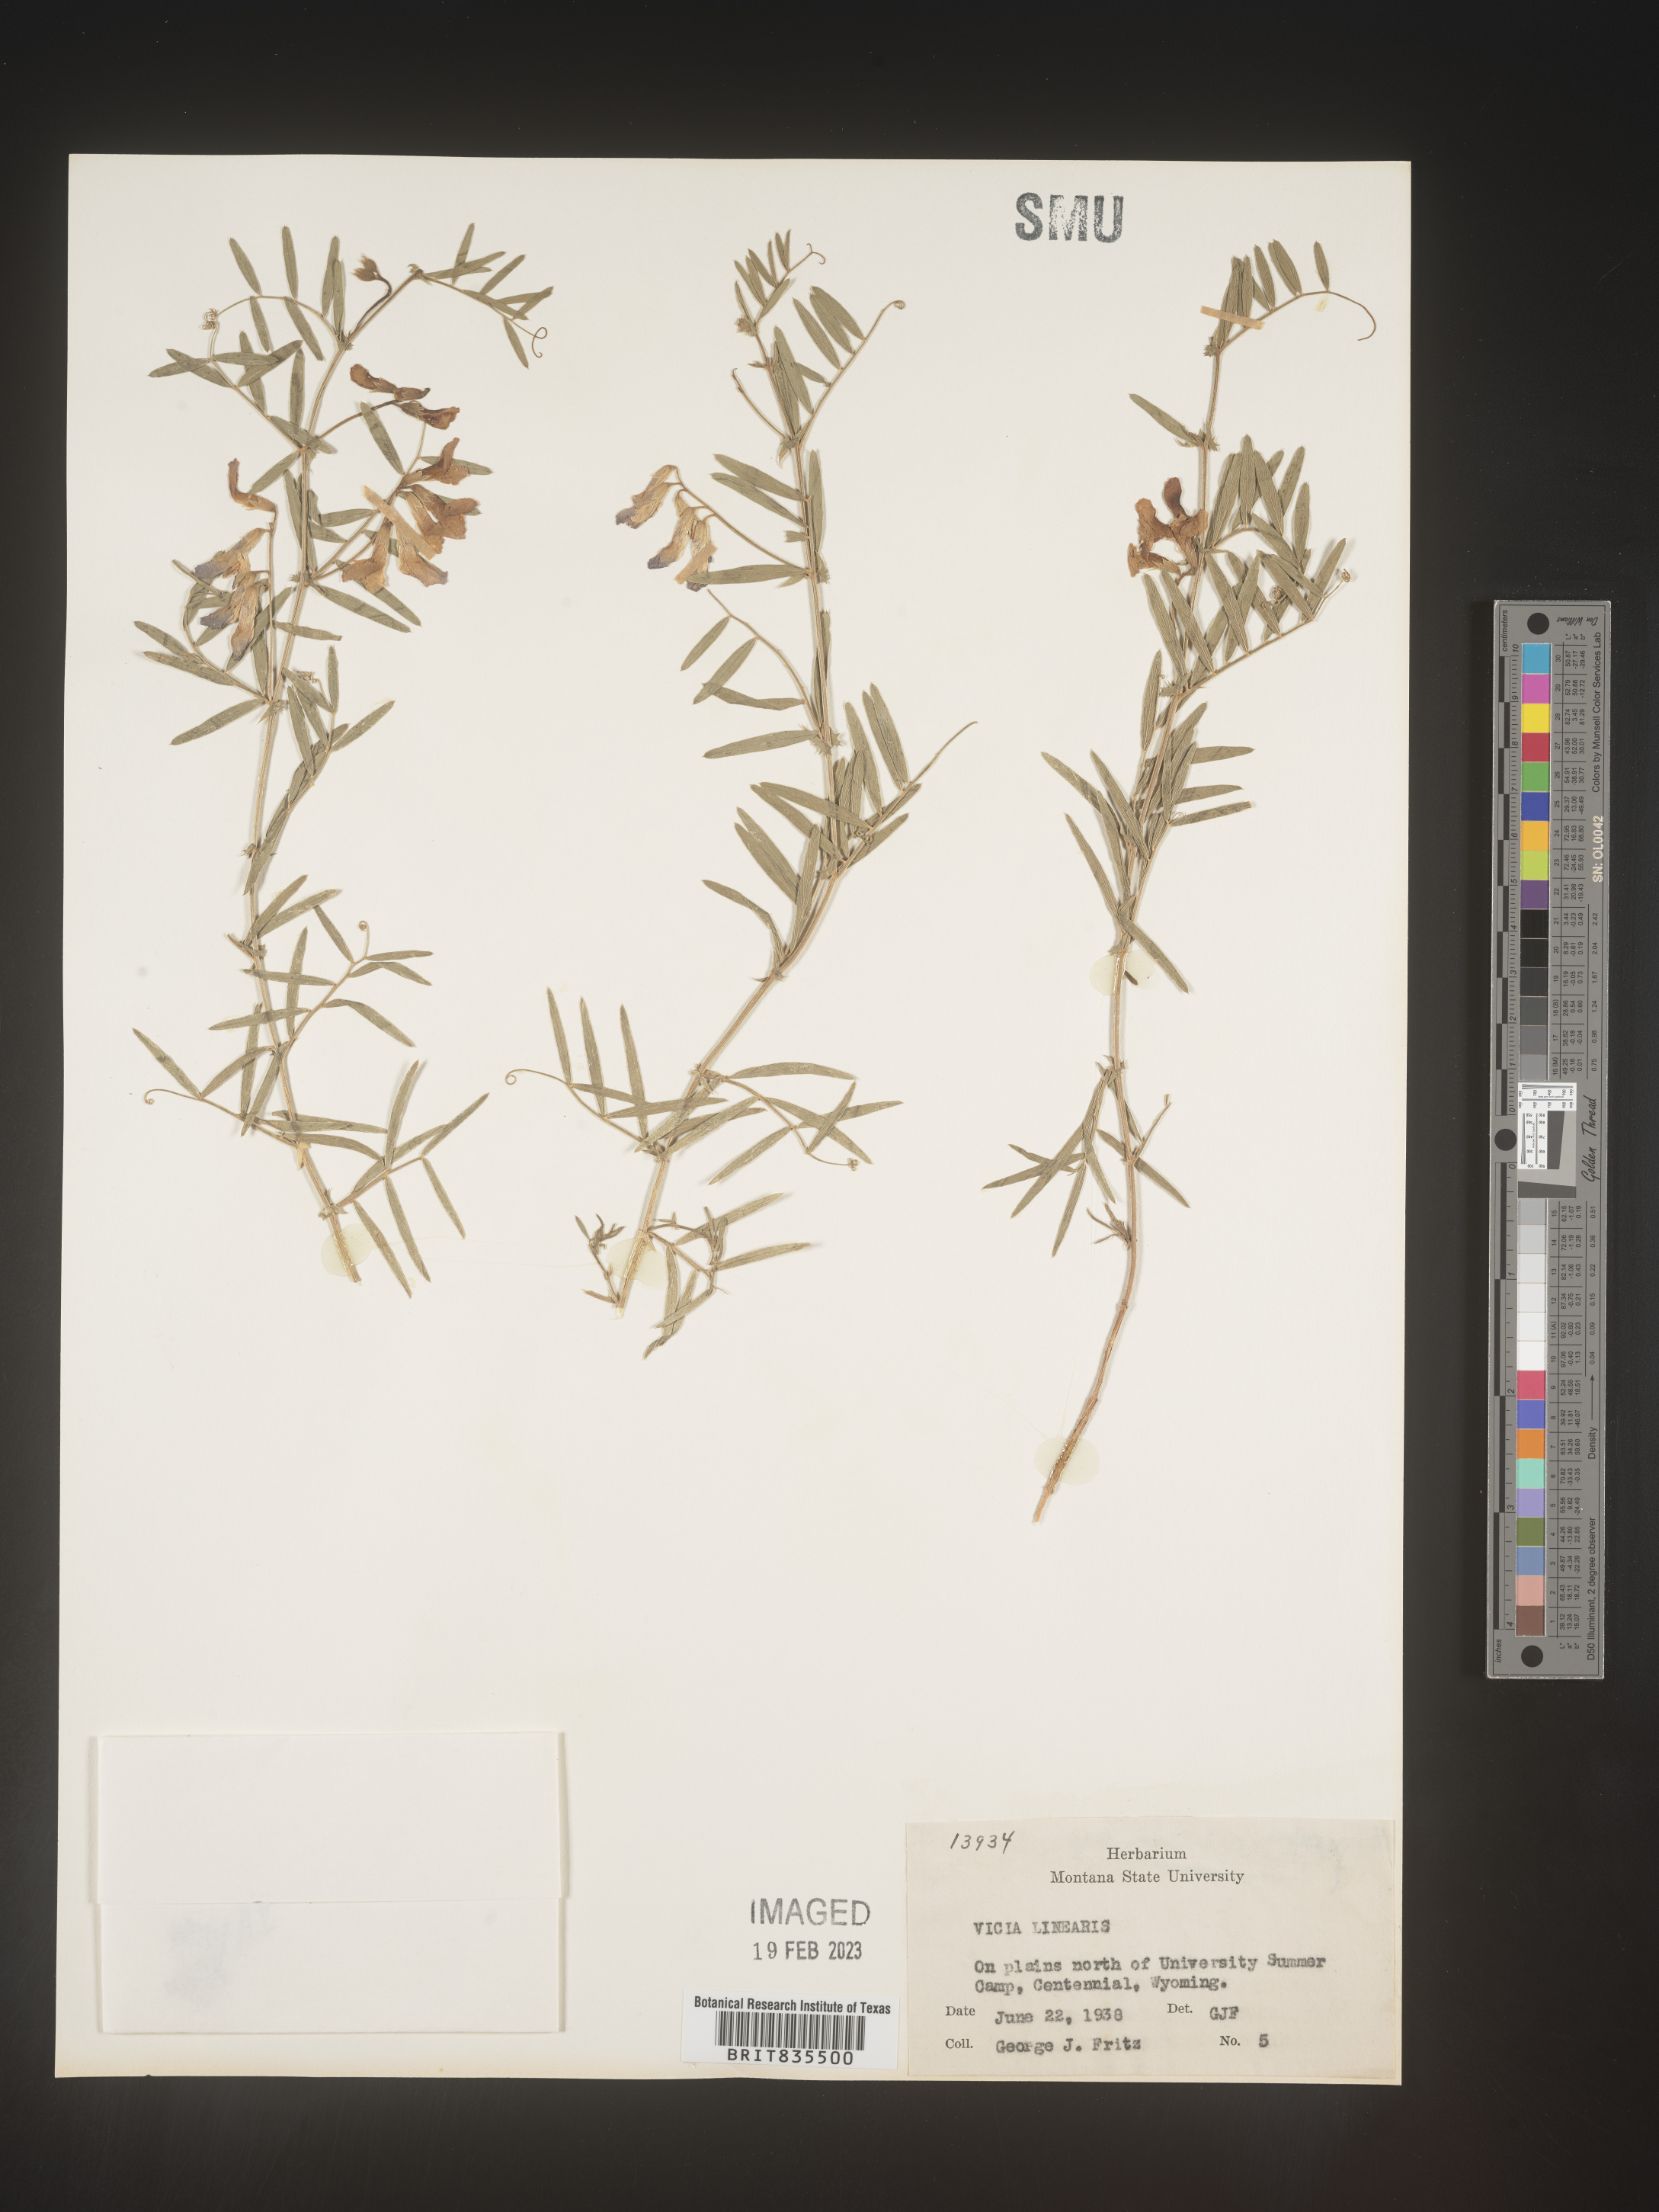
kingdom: Plantae
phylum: Tracheophyta
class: Magnoliopsida
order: Fabales
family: Fabaceae
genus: Vicia
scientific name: Vicia americana
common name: American vetch
